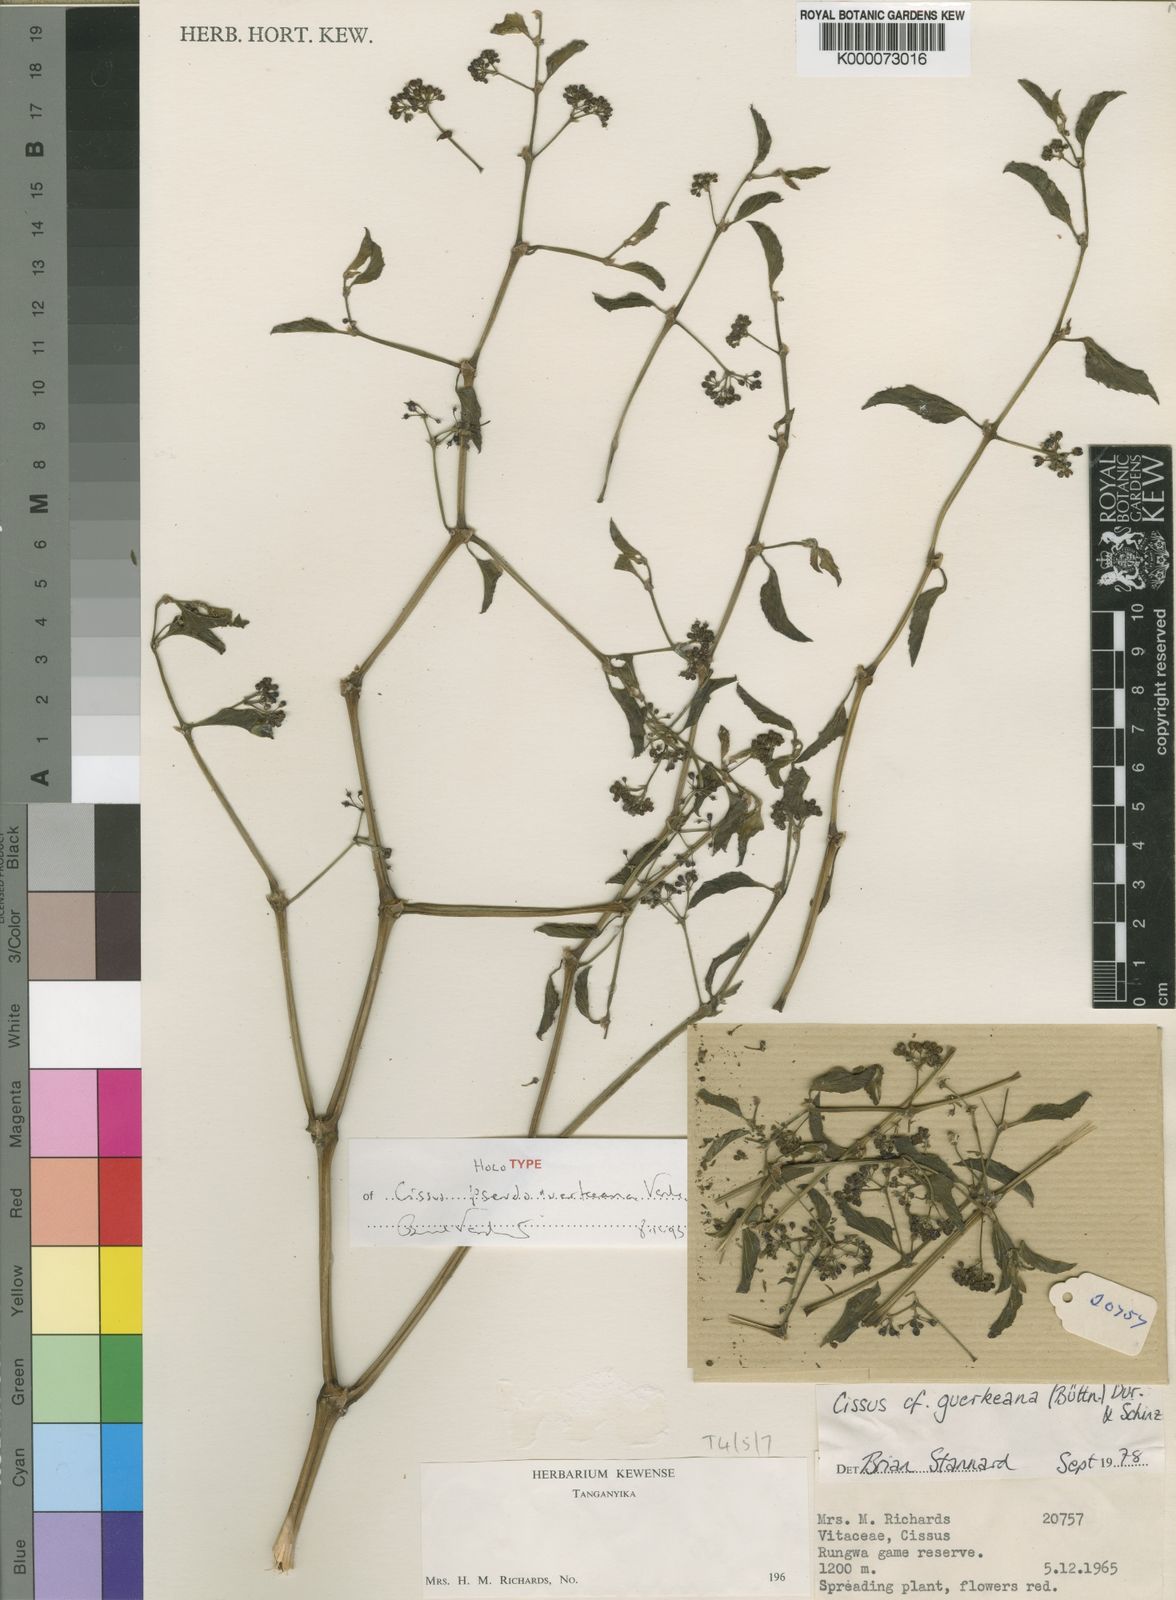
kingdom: Plantae
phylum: Tracheophyta
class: Magnoliopsida
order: Vitales
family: Vitaceae
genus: Cissus
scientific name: Cissus pseudoguerkeana
